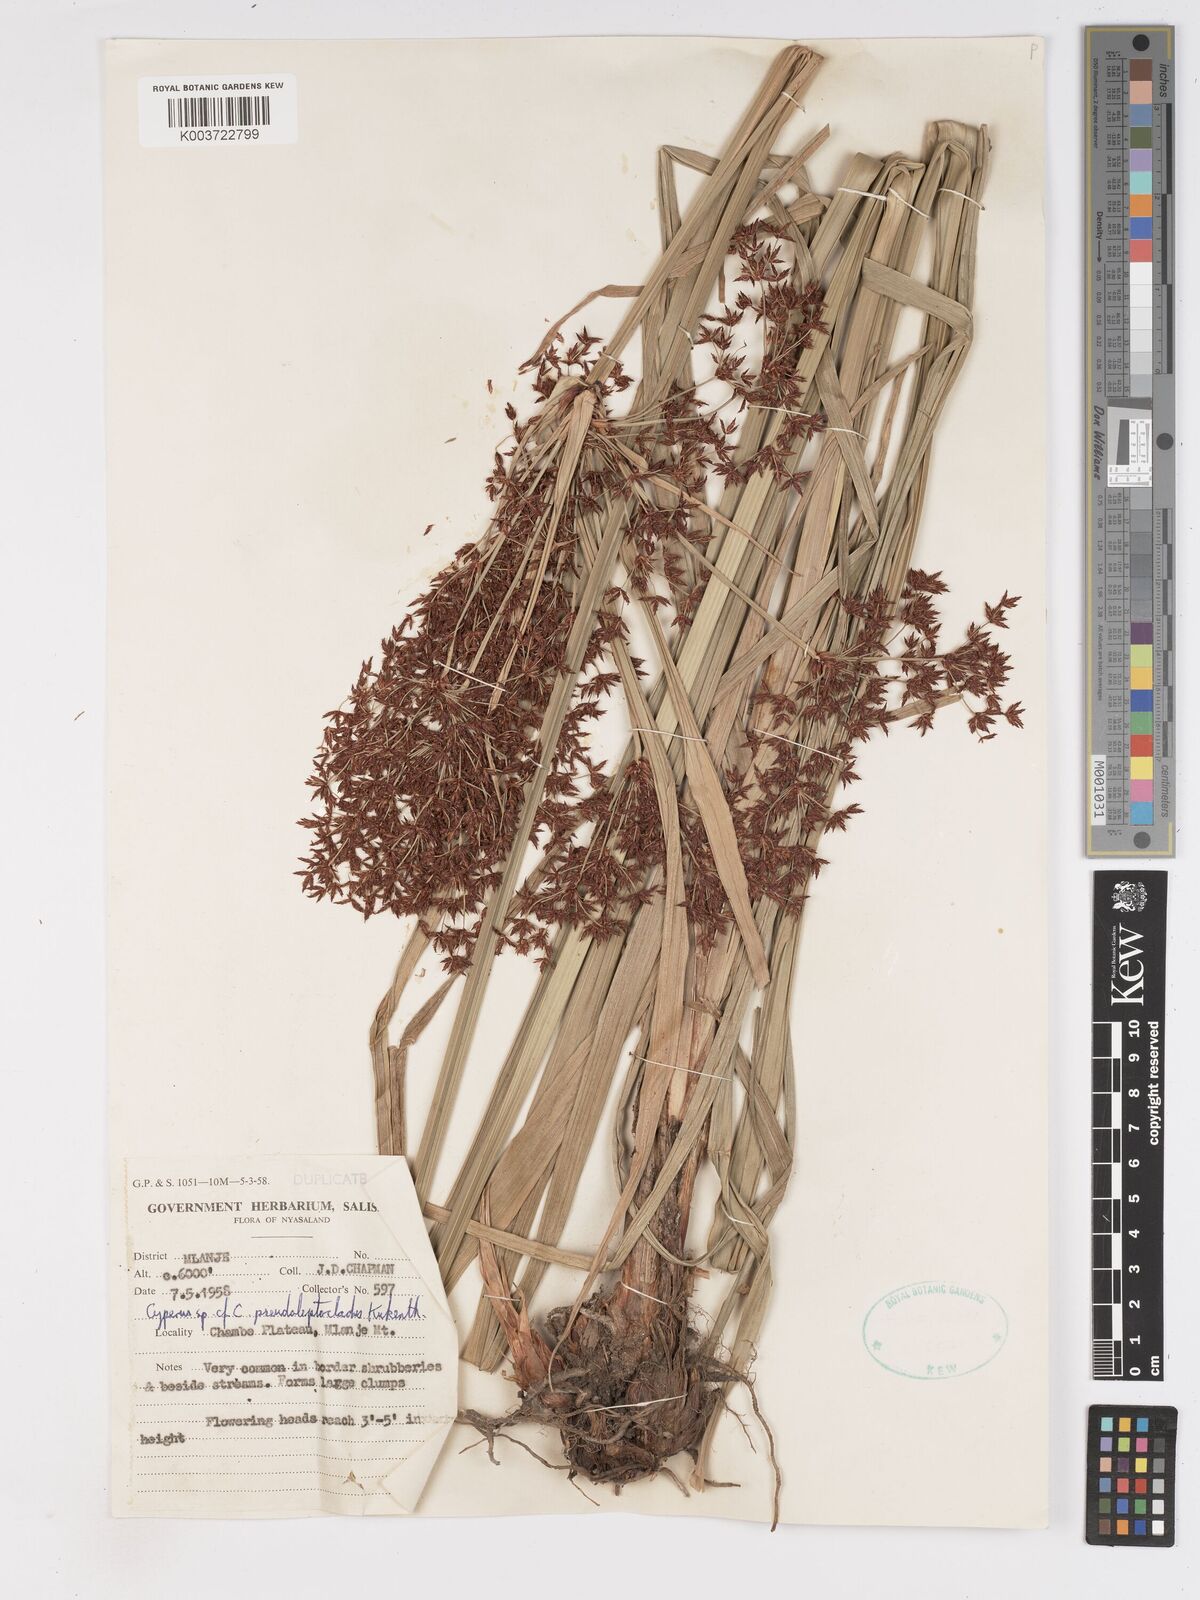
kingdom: Plantae
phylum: Tracheophyta
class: Liliopsida
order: Poales
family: Cyperaceae
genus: Cyperus
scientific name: Cyperus glaucophyllus
